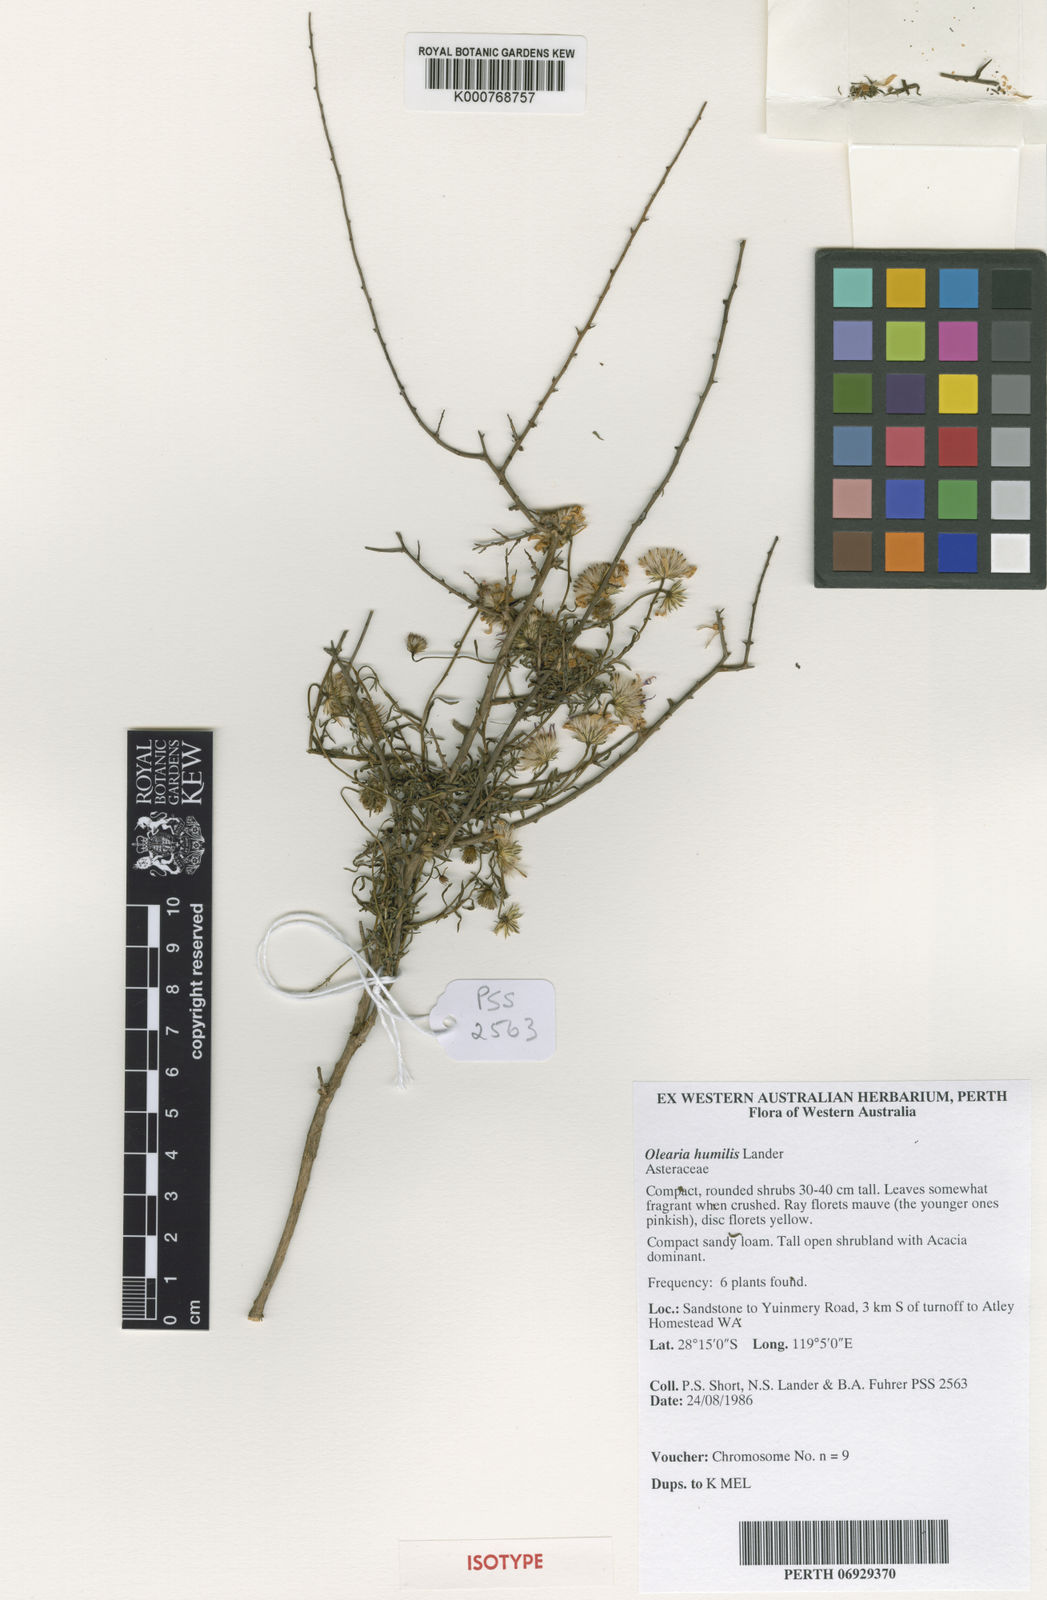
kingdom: Plantae
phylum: Tracheophyta
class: Magnoliopsida
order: Asterales
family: Asteraceae
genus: Landerolaria
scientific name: Landerolaria humilis
